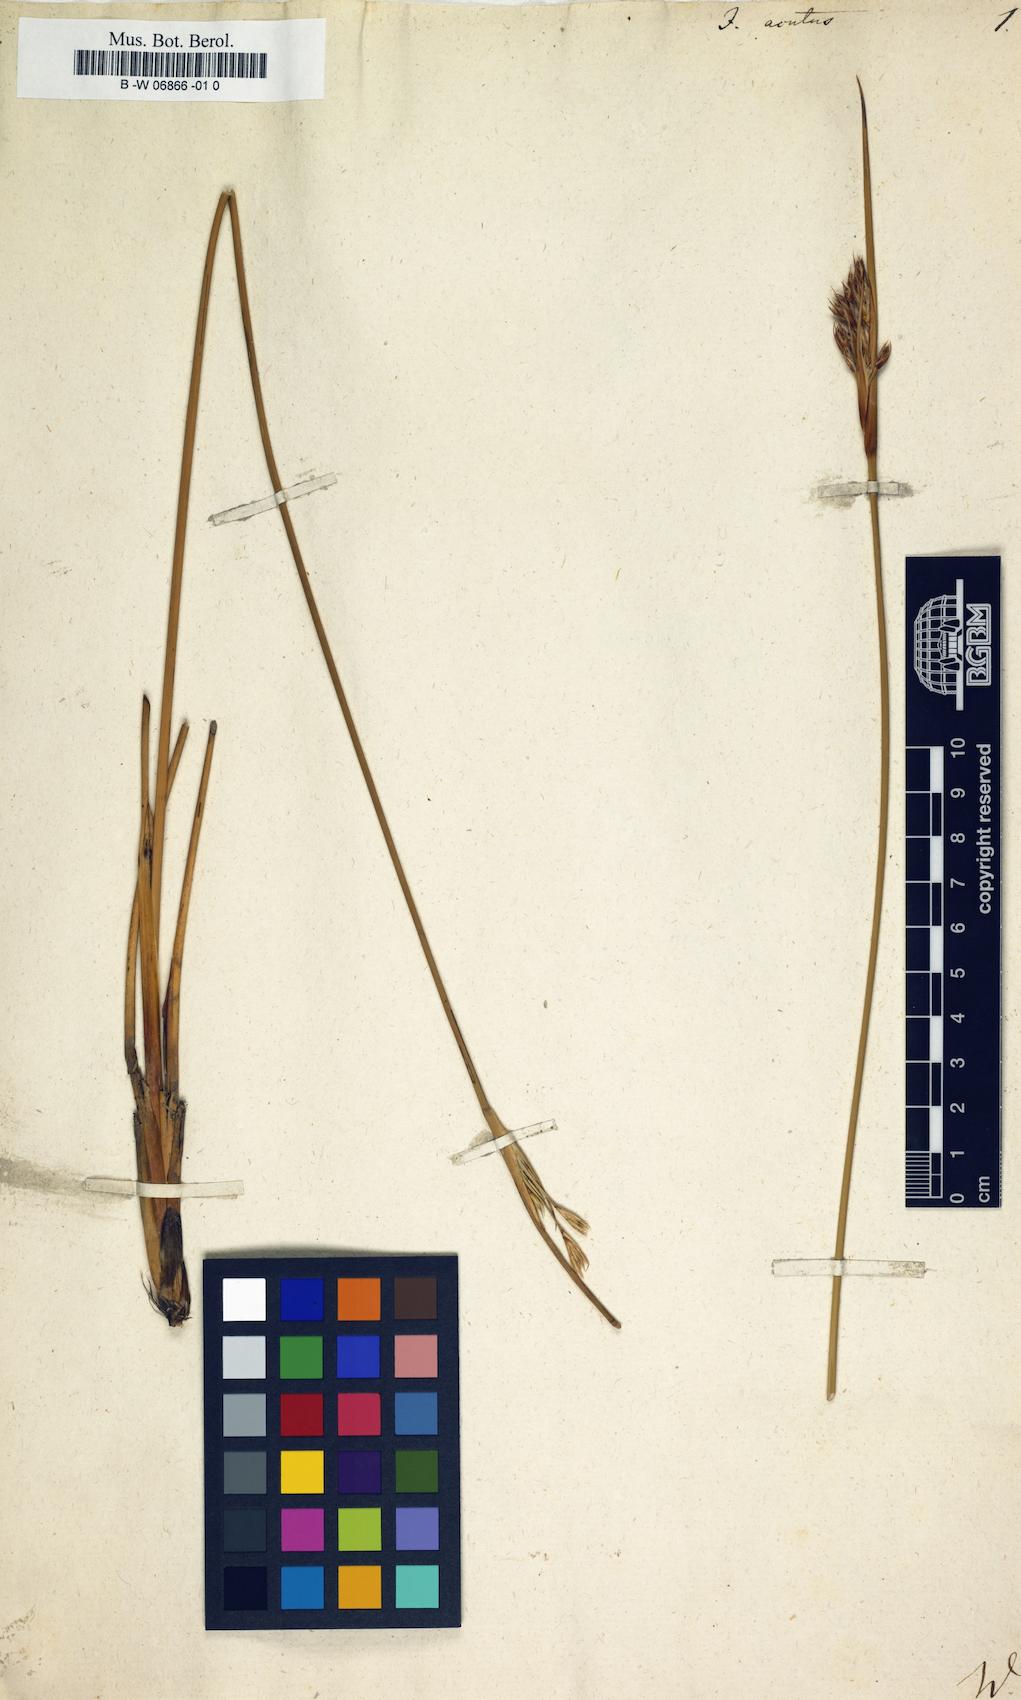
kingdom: Plantae
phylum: Tracheophyta
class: Liliopsida
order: Poales
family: Juncaceae
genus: Juncus
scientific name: Juncus acutus
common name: Sharp rush
